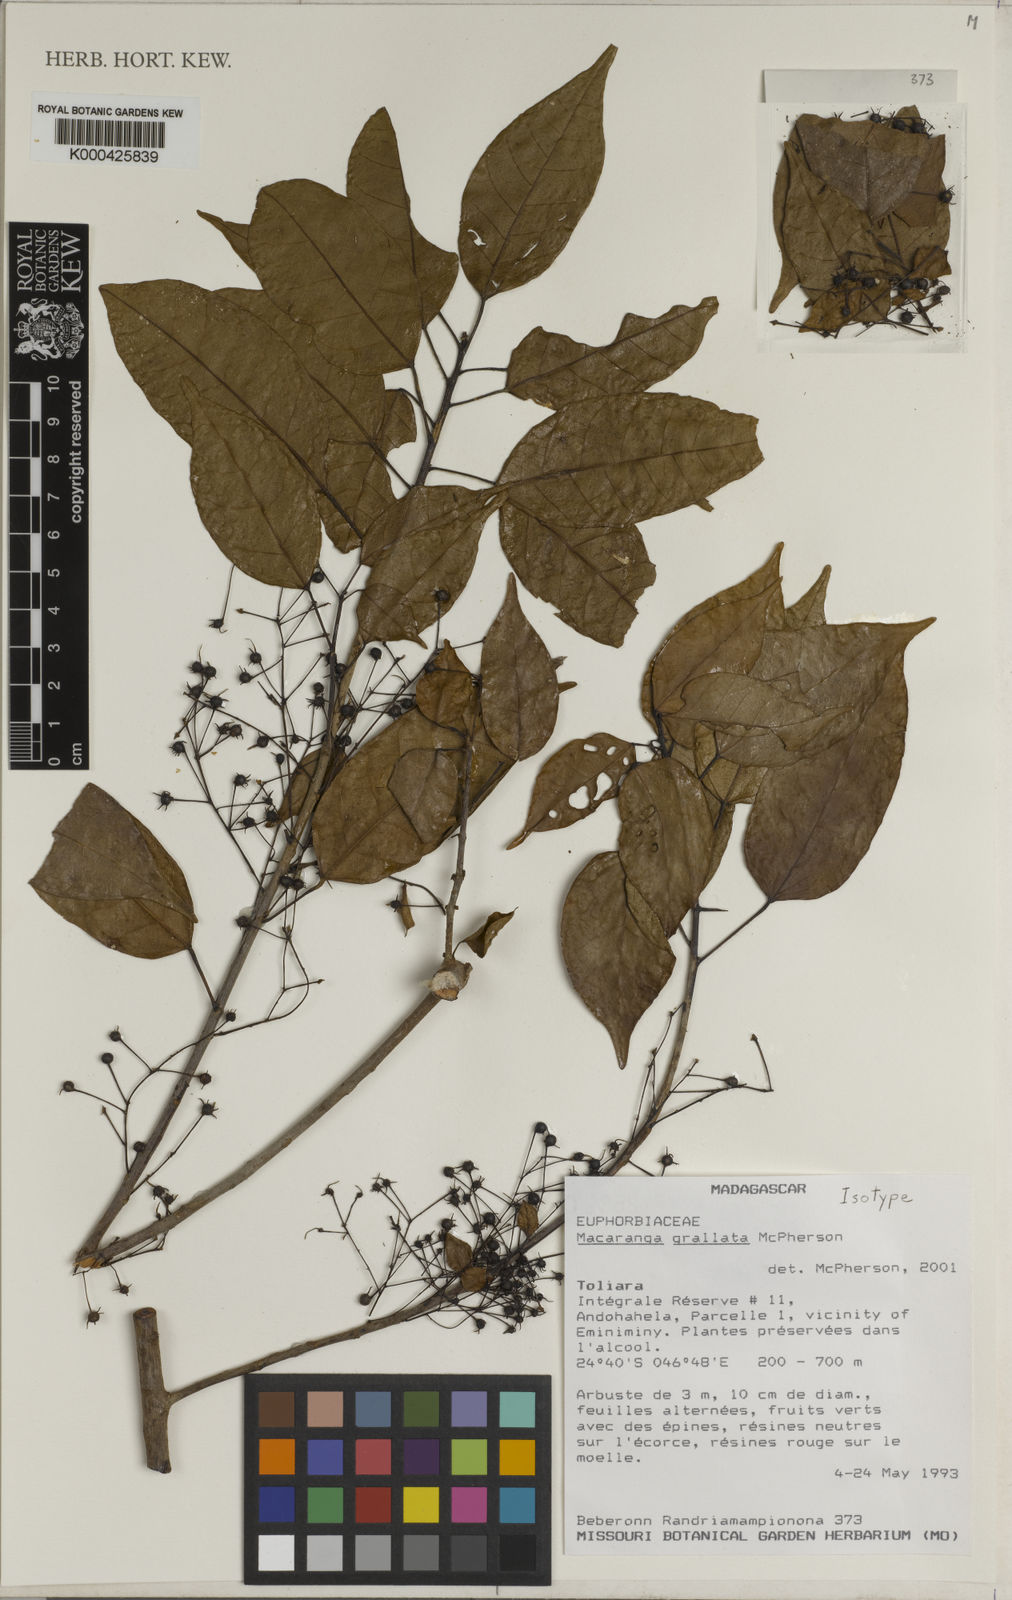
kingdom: Plantae
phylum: Tracheophyta
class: Magnoliopsida
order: Malpighiales
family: Euphorbiaceae
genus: Macaranga
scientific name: Macaranga grallata
